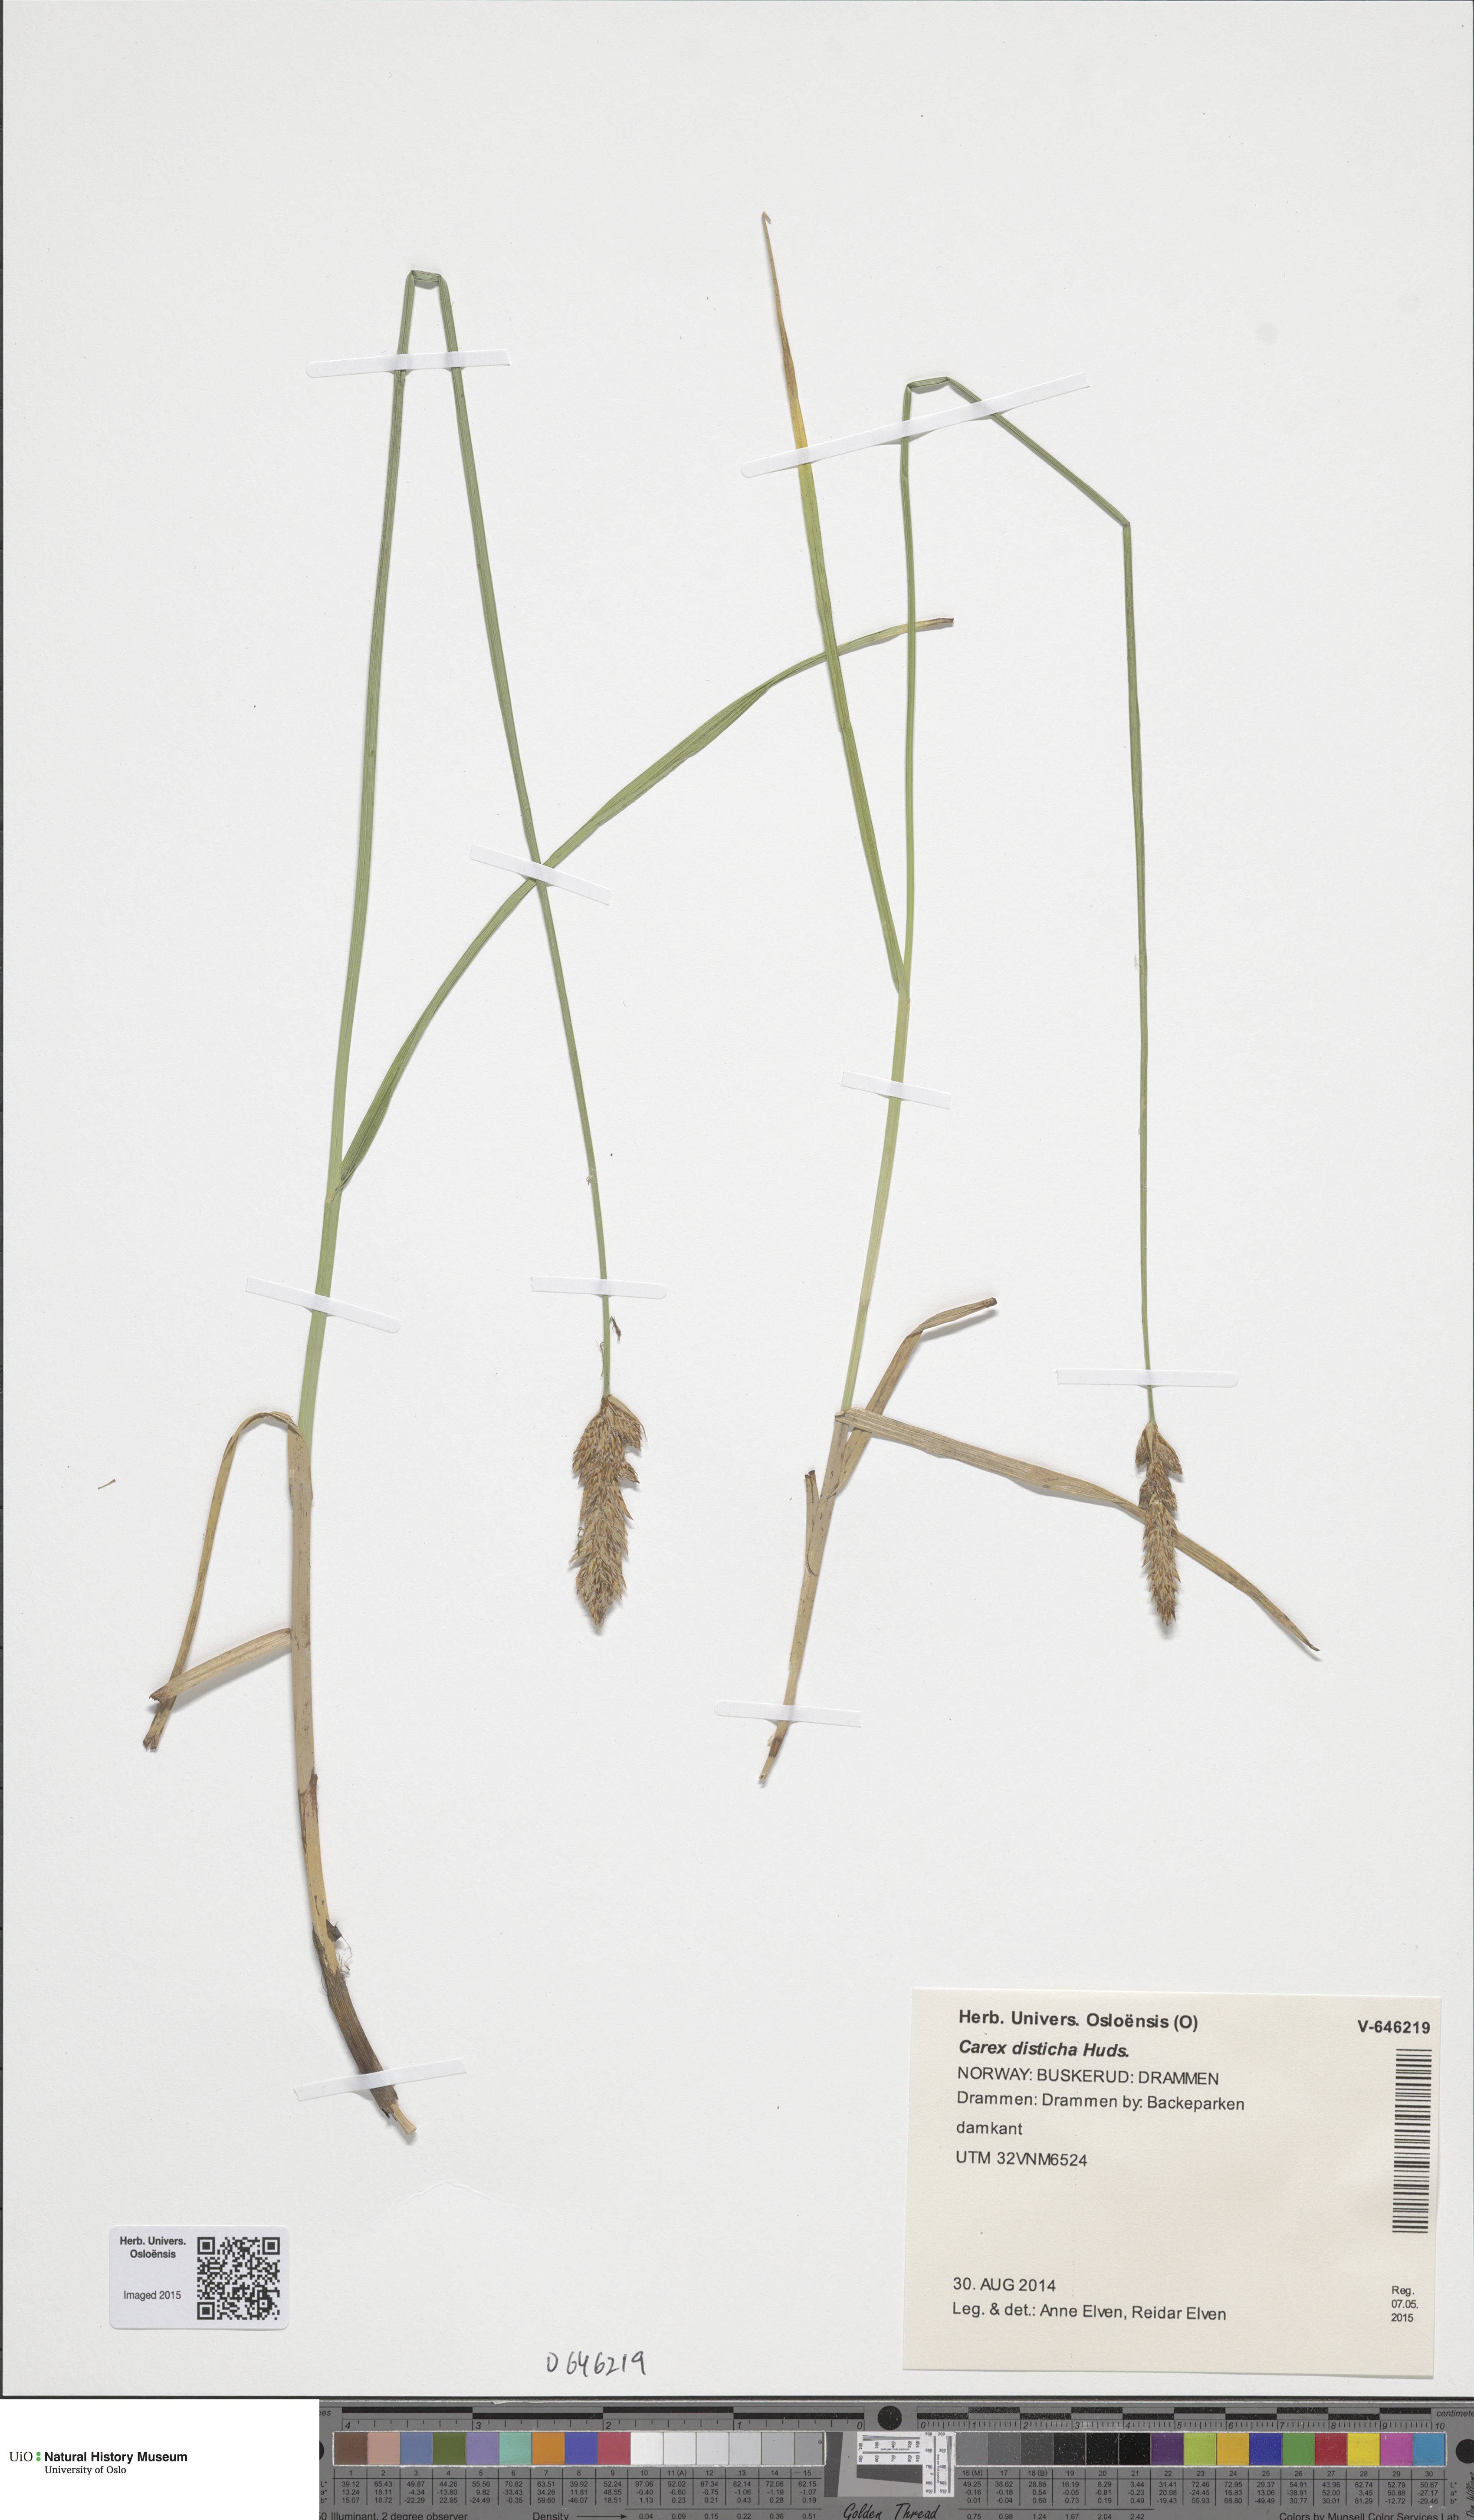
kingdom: Plantae
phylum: Tracheophyta
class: Liliopsida
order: Poales
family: Cyperaceae
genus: Carex
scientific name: Carex disticha
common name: Brown sedge
